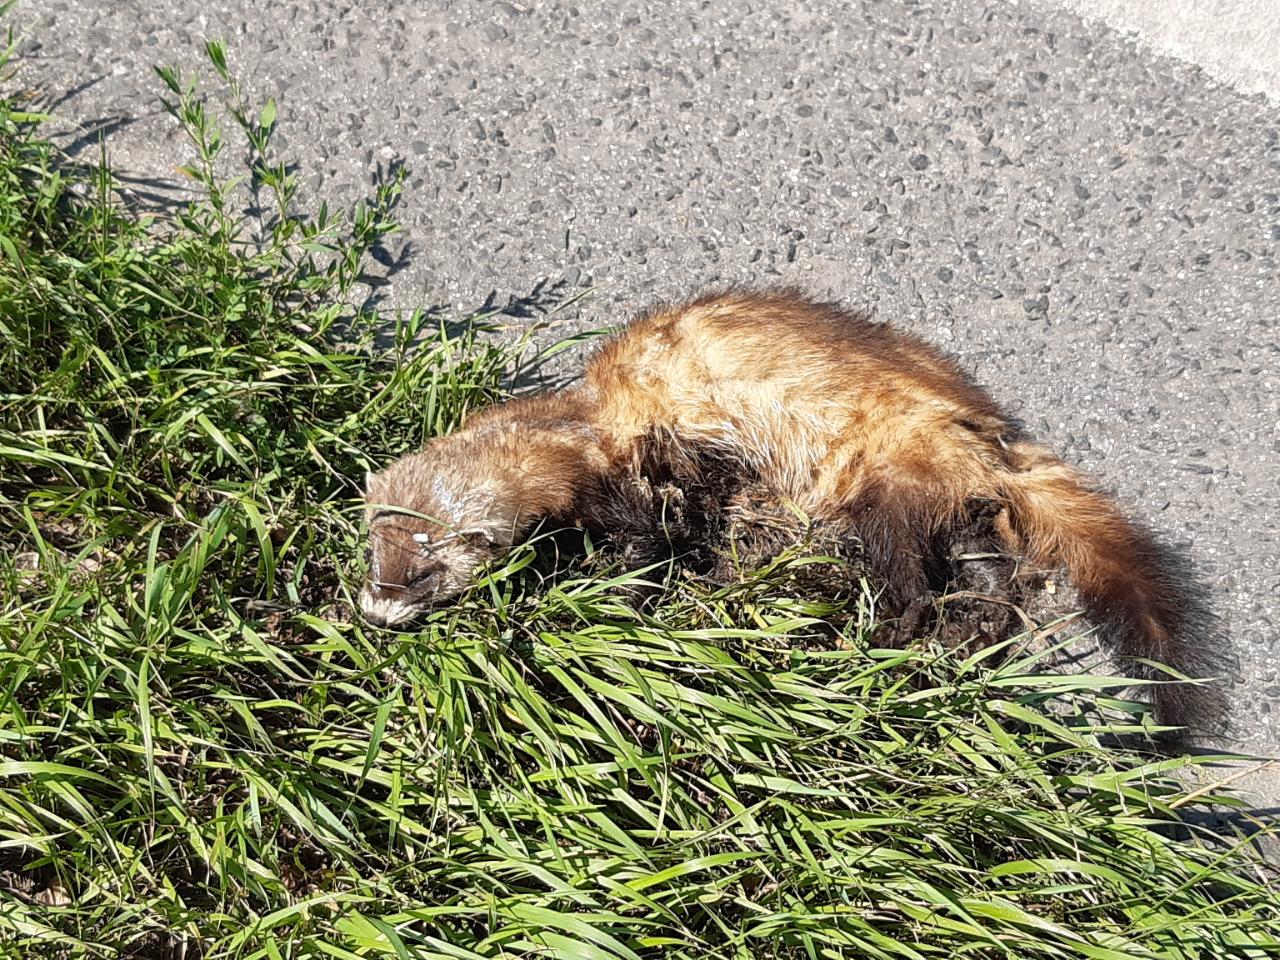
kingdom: Animalia
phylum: Chordata
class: Mammalia
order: Carnivora
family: Mustelidae
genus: Mustela
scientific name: Mustela putorius
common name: European polecat
